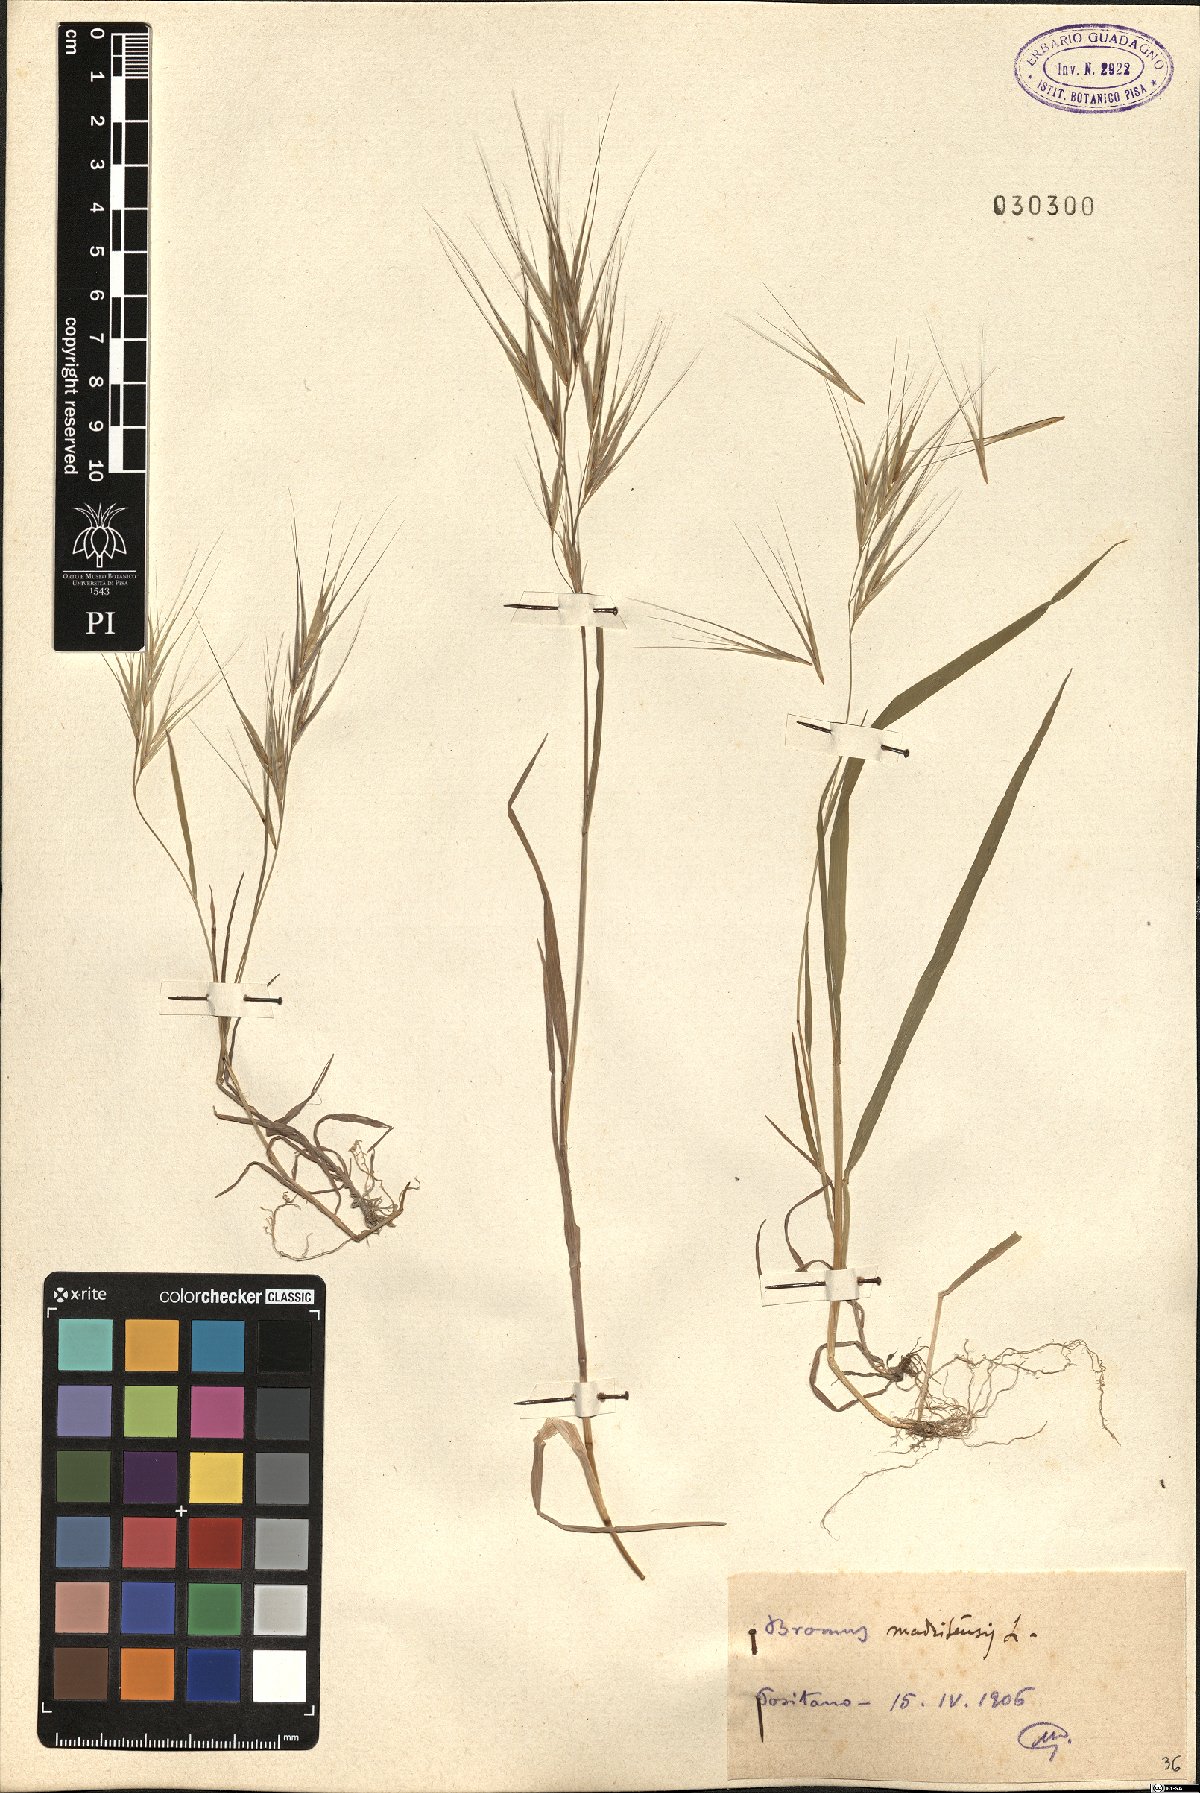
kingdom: Plantae
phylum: Tracheophyta
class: Liliopsida
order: Poales
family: Poaceae
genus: Bromus
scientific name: Bromus madritensis
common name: Compact brome
